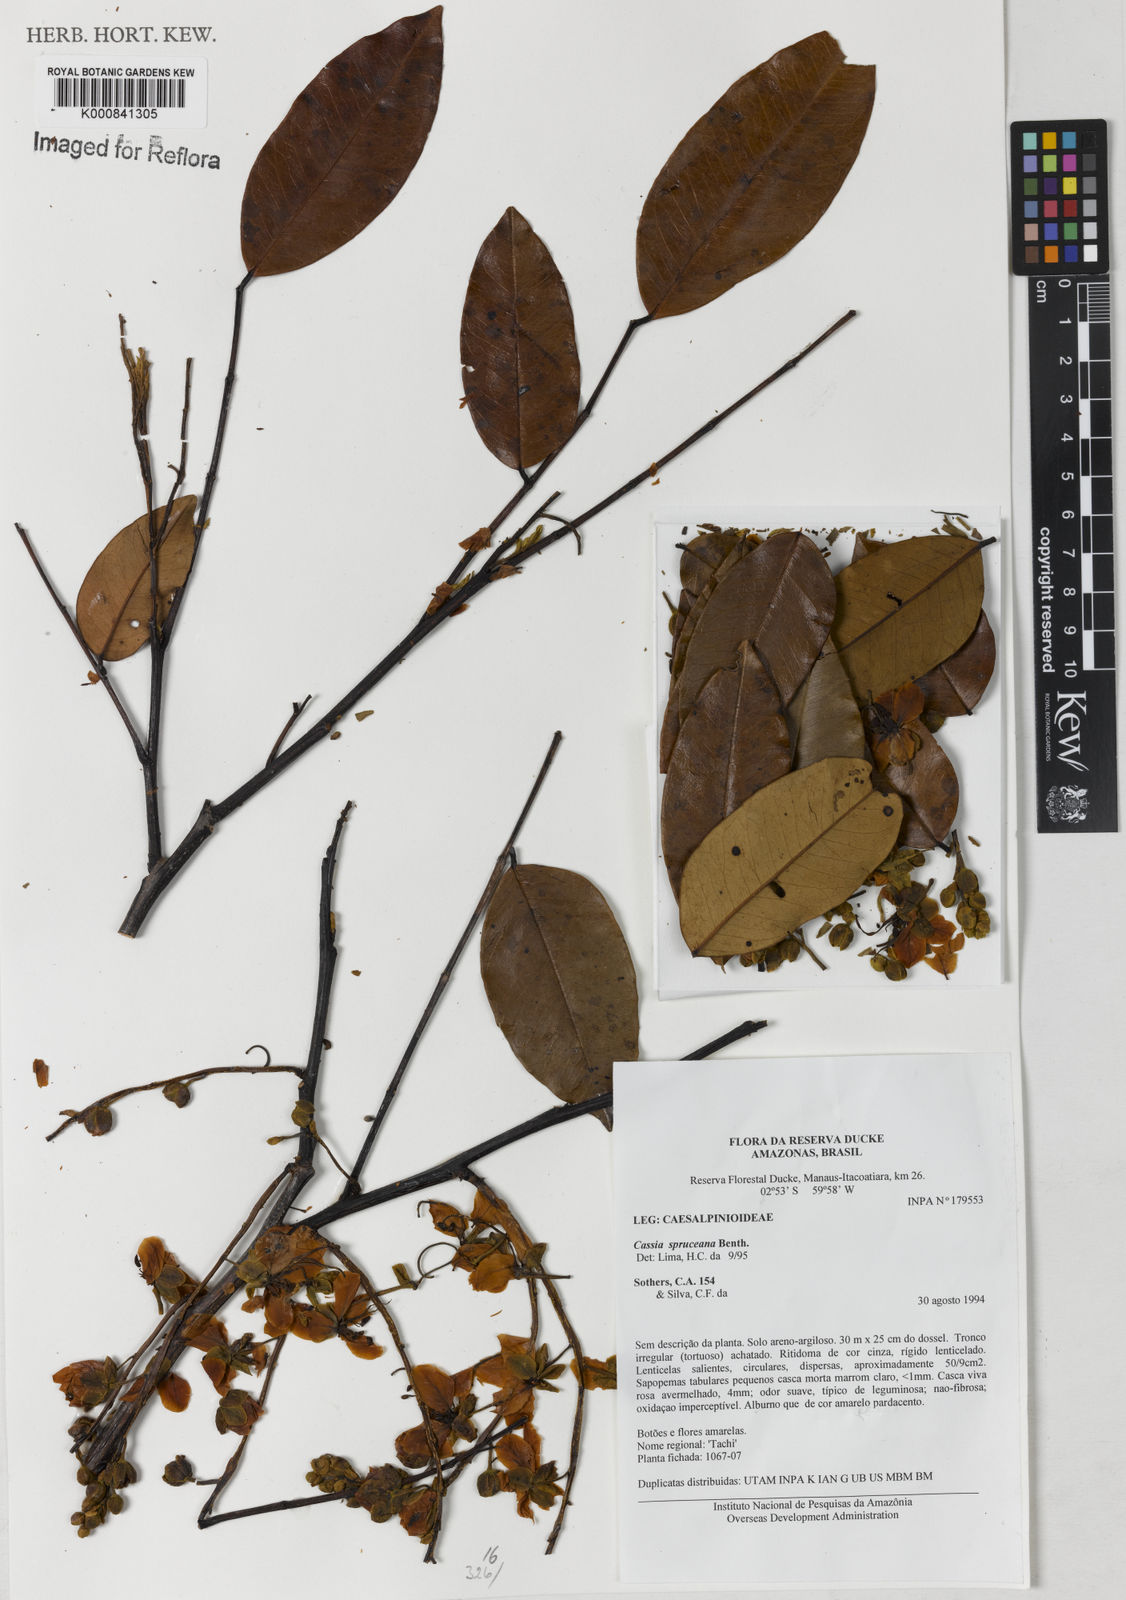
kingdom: Plantae
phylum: Tracheophyta
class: Magnoliopsida
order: Fabales
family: Fabaceae
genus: Cassia
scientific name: Cassia spruceana
